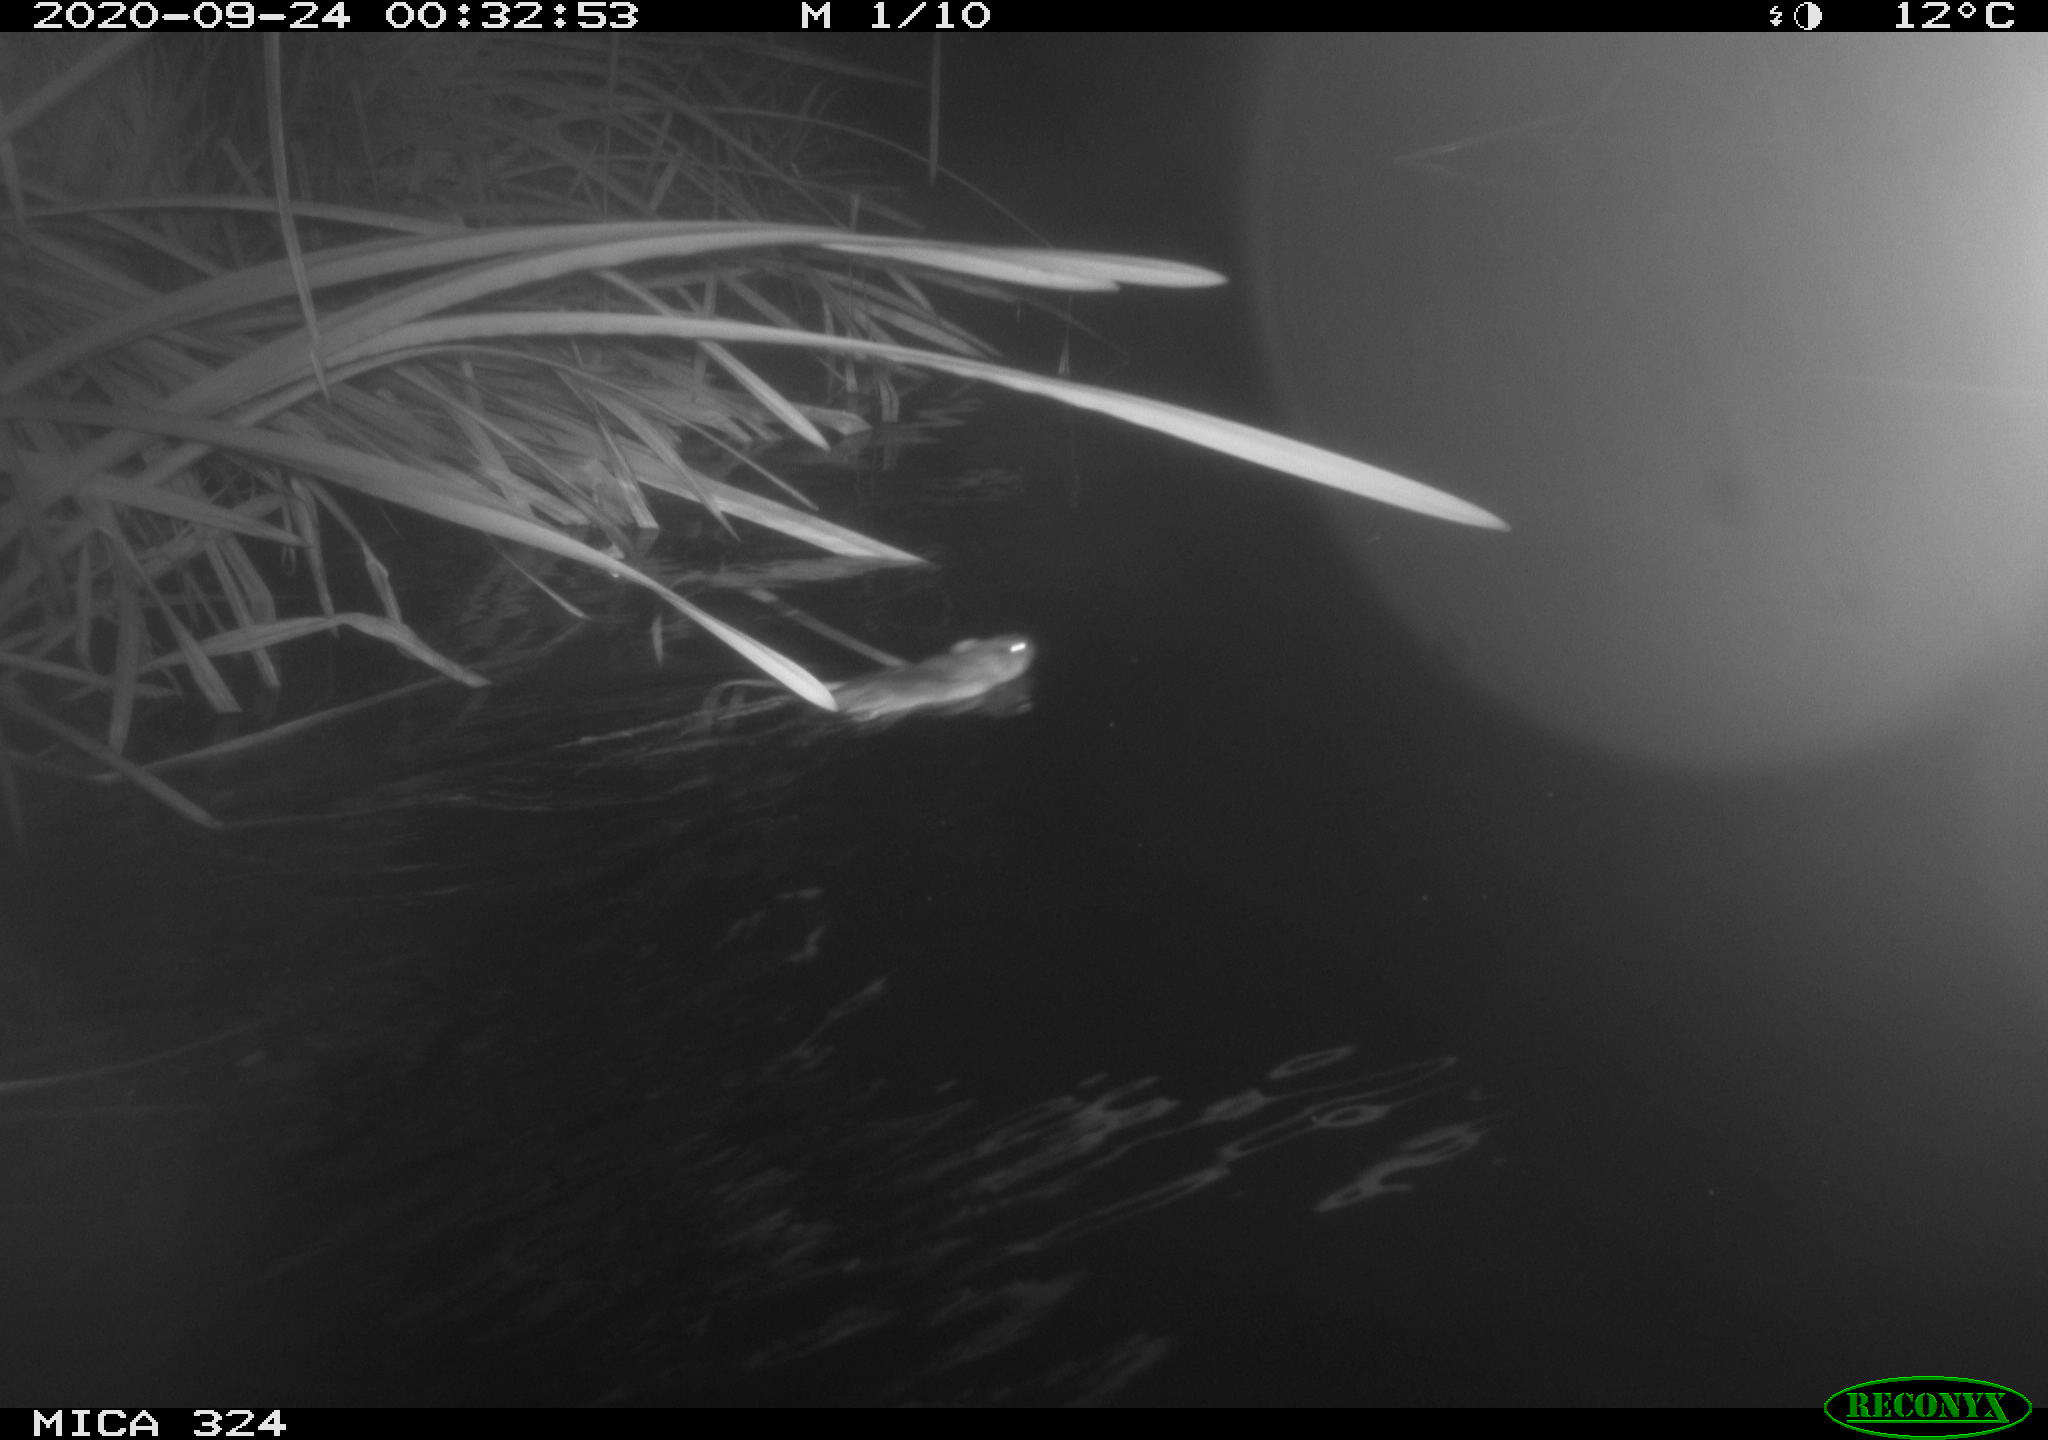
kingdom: Animalia
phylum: Chordata
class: Mammalia
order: Rodentia
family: Cricetidae
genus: Ondatra
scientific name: Ondatra zibethicus
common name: Muskrat
